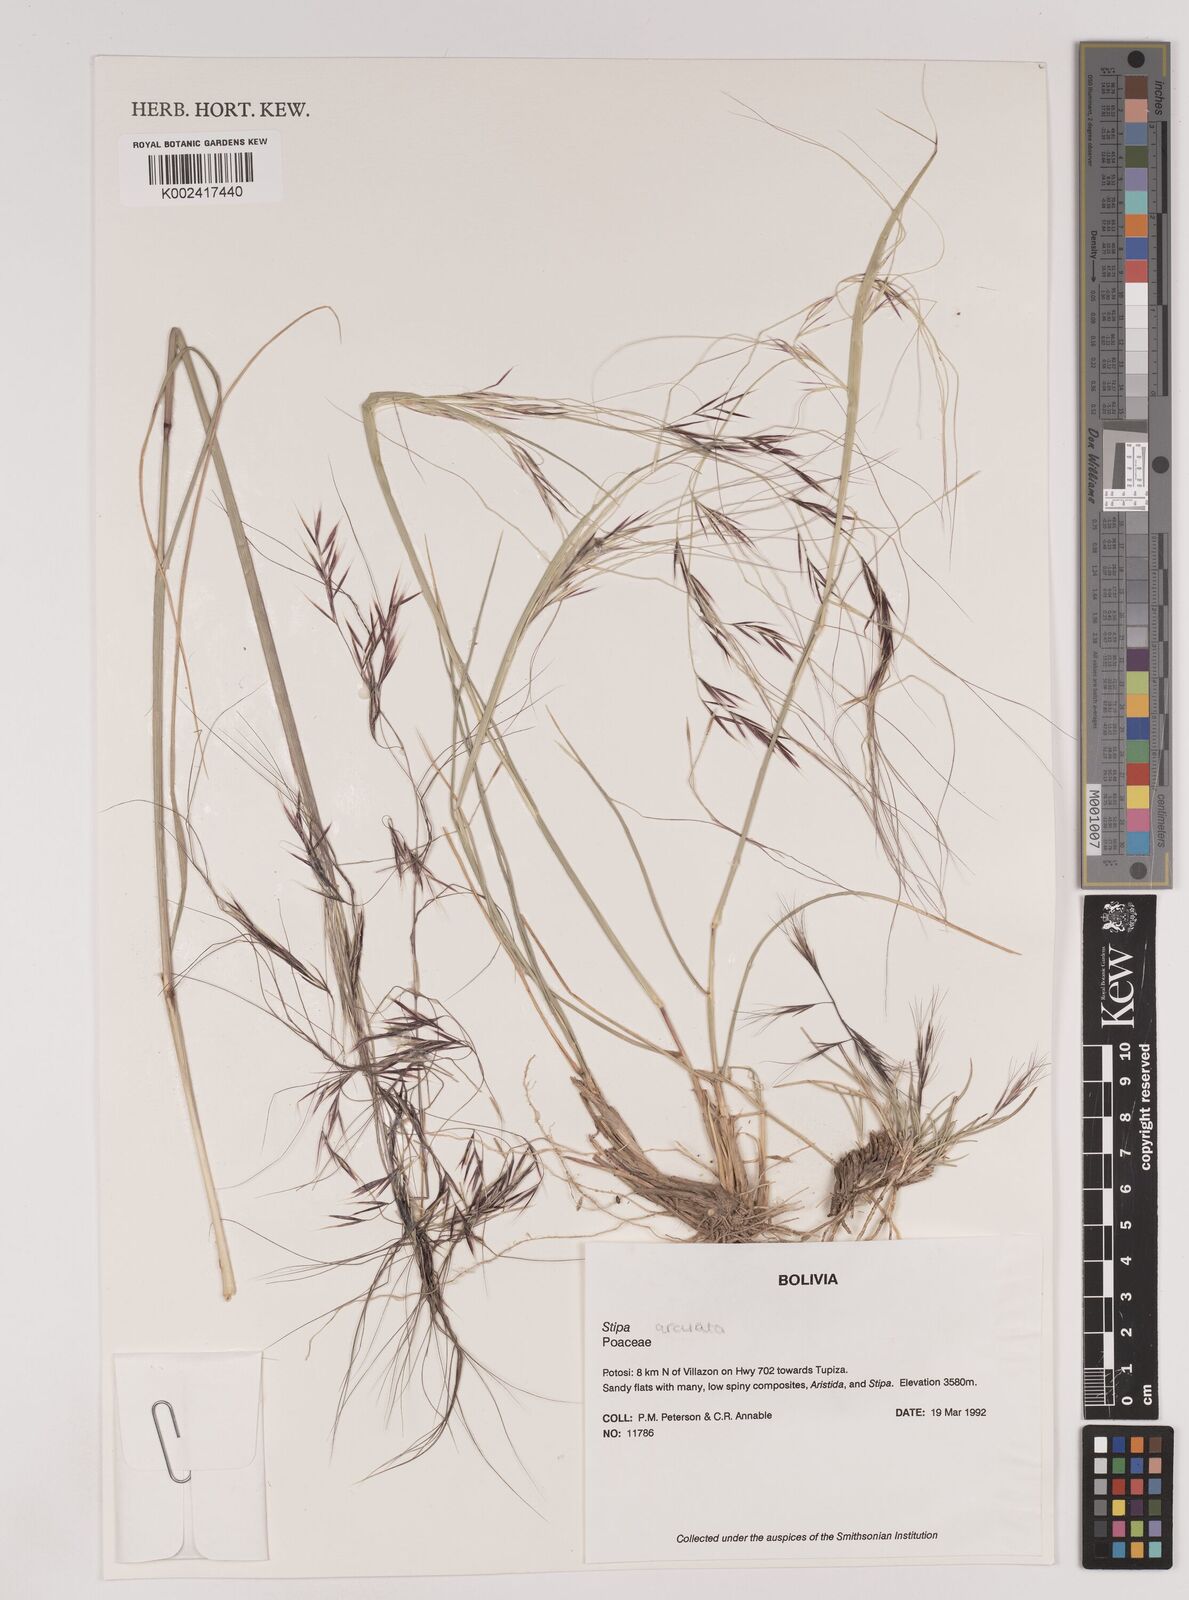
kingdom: Plantae
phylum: Tracheophyta
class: Liliopsida
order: Poales
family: Poaceae
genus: Nassella
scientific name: Nassella arcuata
